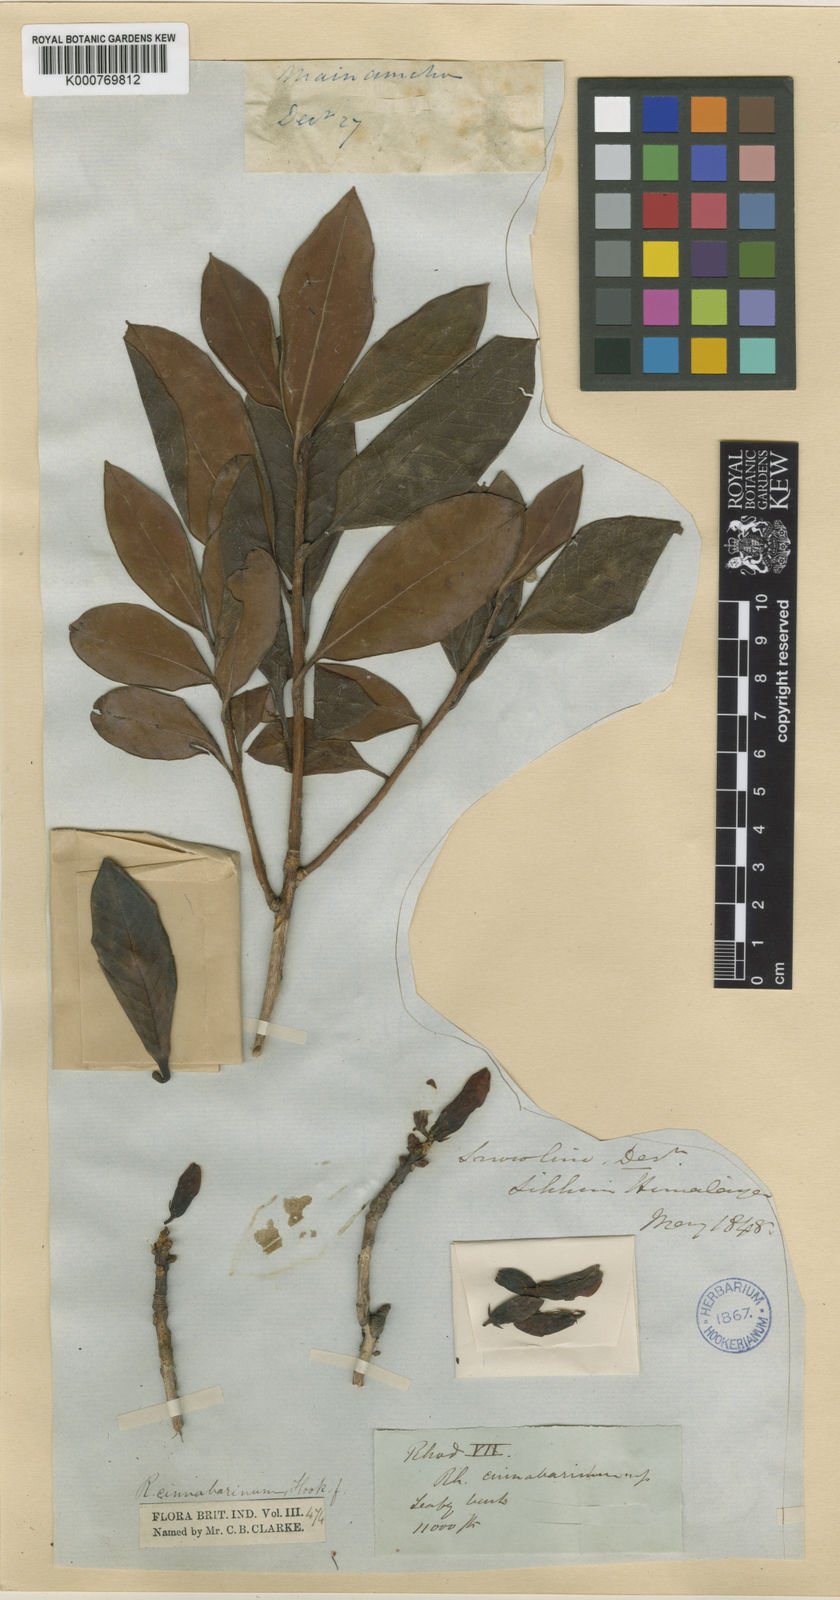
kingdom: Plantae
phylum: Tracheophyta
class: Magnoliopsida
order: Ericales
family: Ericaceae
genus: Rhododendron
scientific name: Rhododendron cinnabarinum
